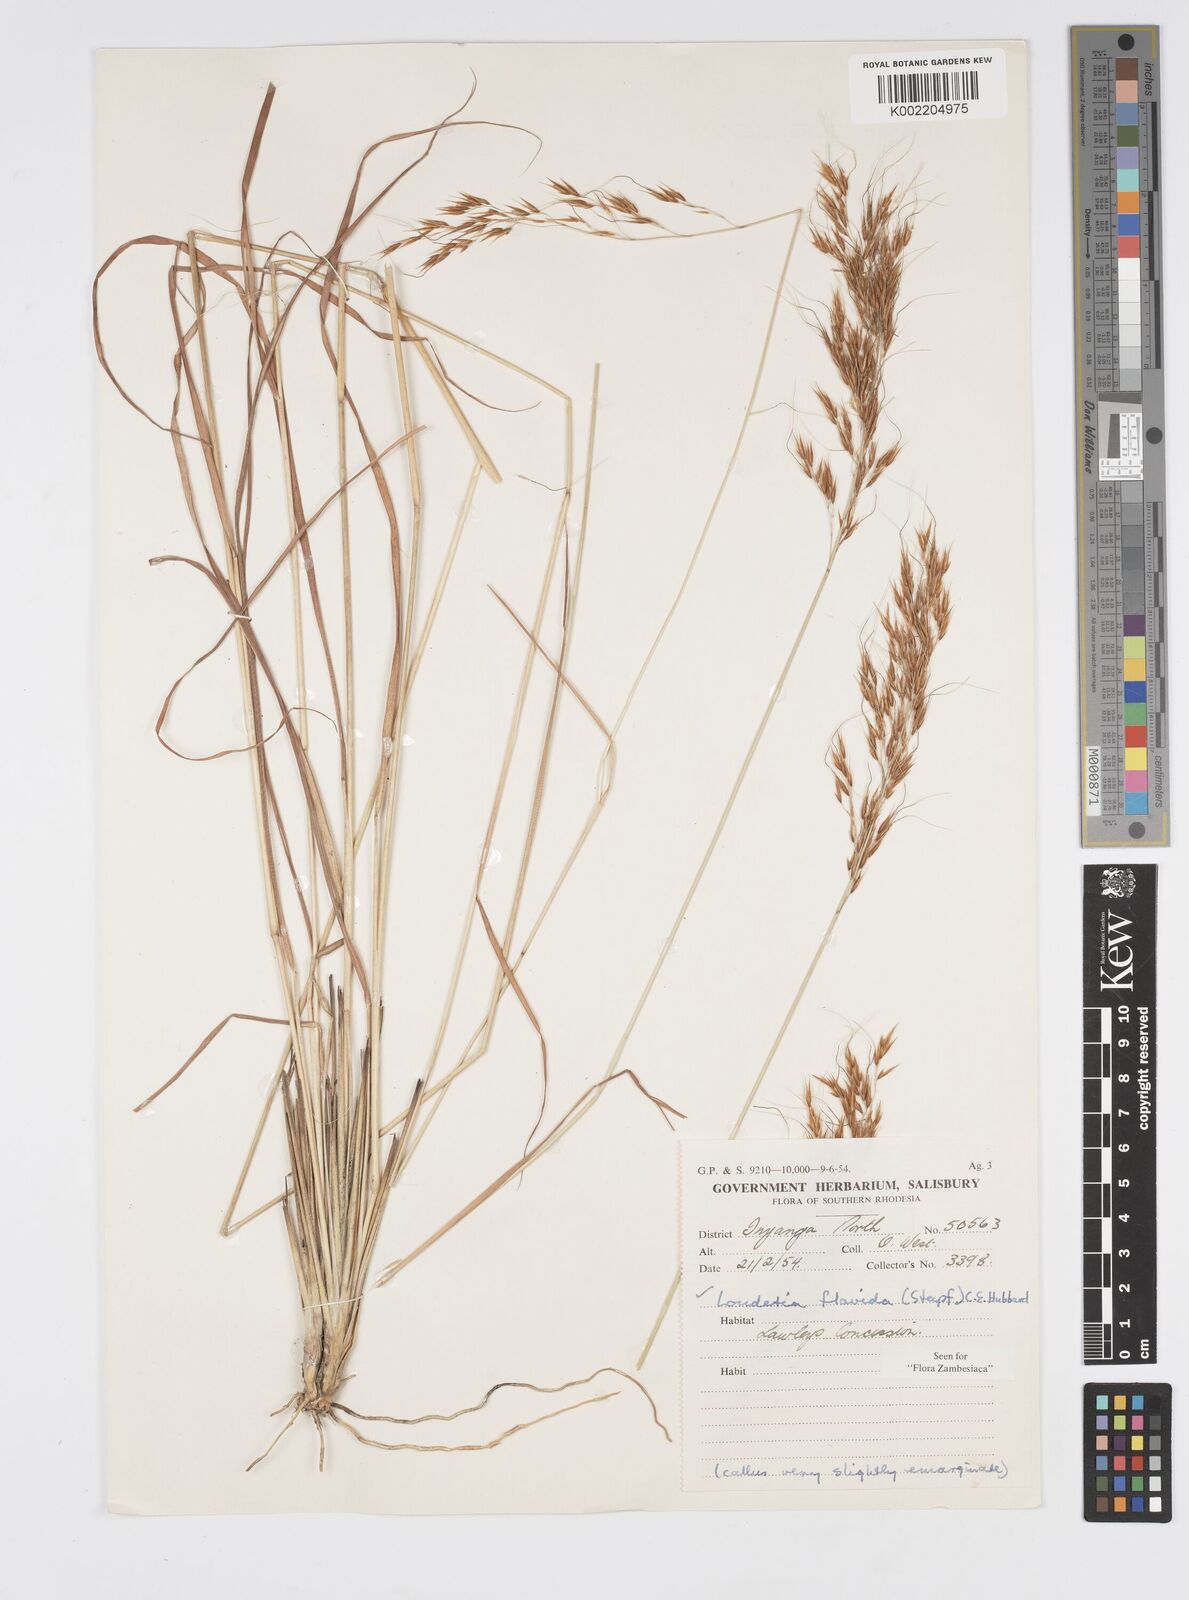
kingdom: Plantae
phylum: Tracheophyta
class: Liliopsida
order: Poales
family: Poaceae
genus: Loudetia
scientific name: Loudetia flavida
